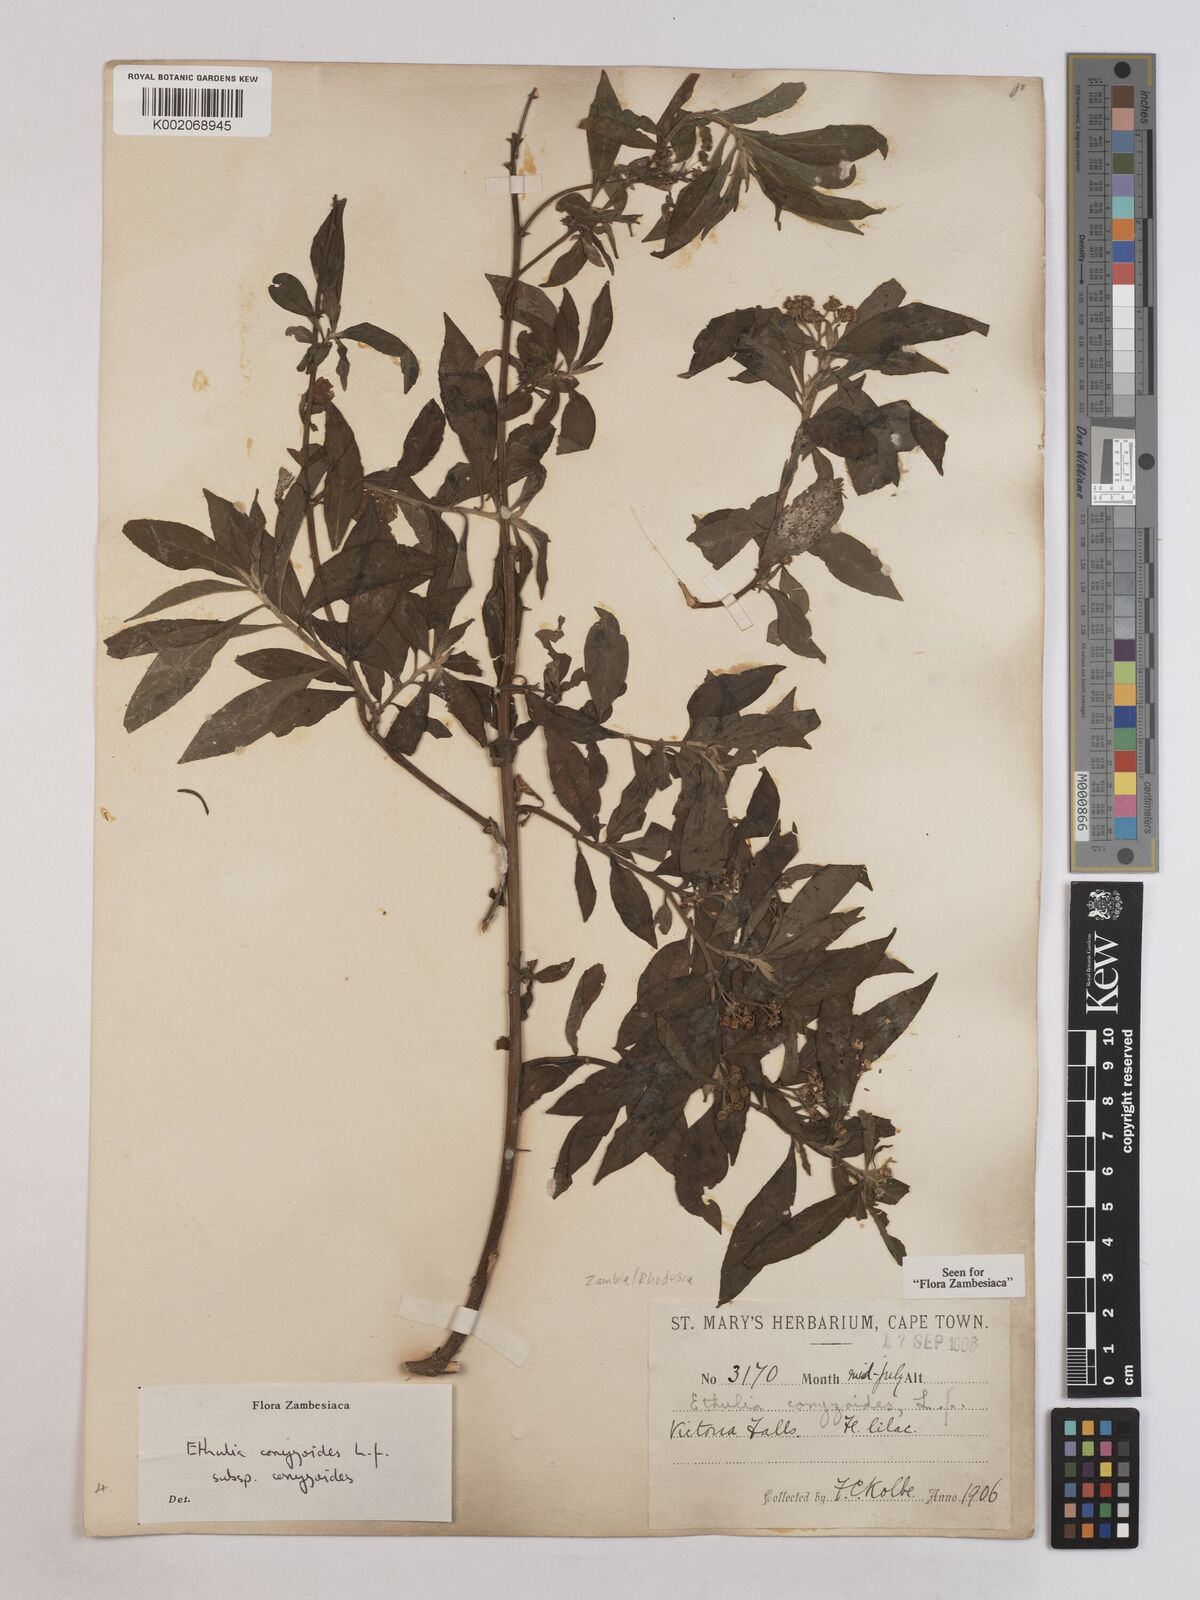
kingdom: Plantae
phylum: Tracheophyta
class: Magnoliopsida
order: Asterales
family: Asteraceae
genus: Ethulia
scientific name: Ethulia conyzoides
